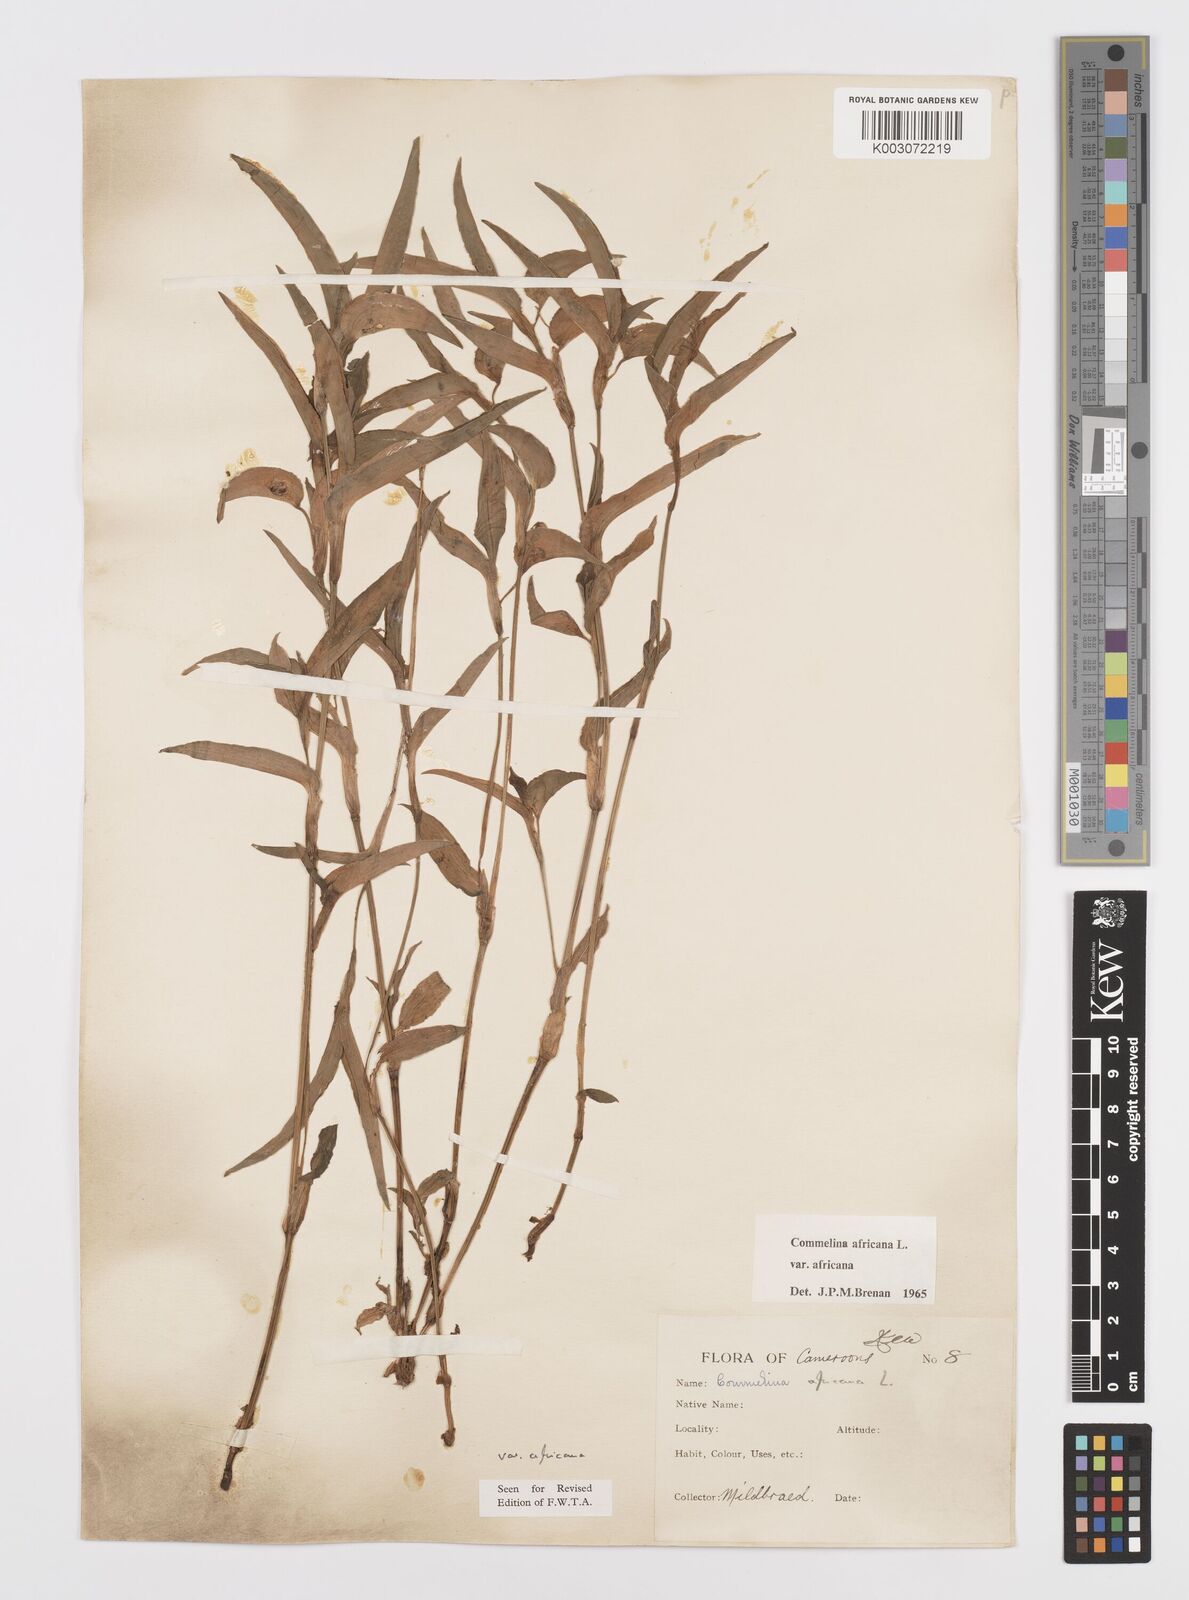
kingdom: Plantae
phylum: Tracheophyta
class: Liliopsida
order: Commelinales
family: Commelinaceae
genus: Commelina
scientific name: Commelina africana
